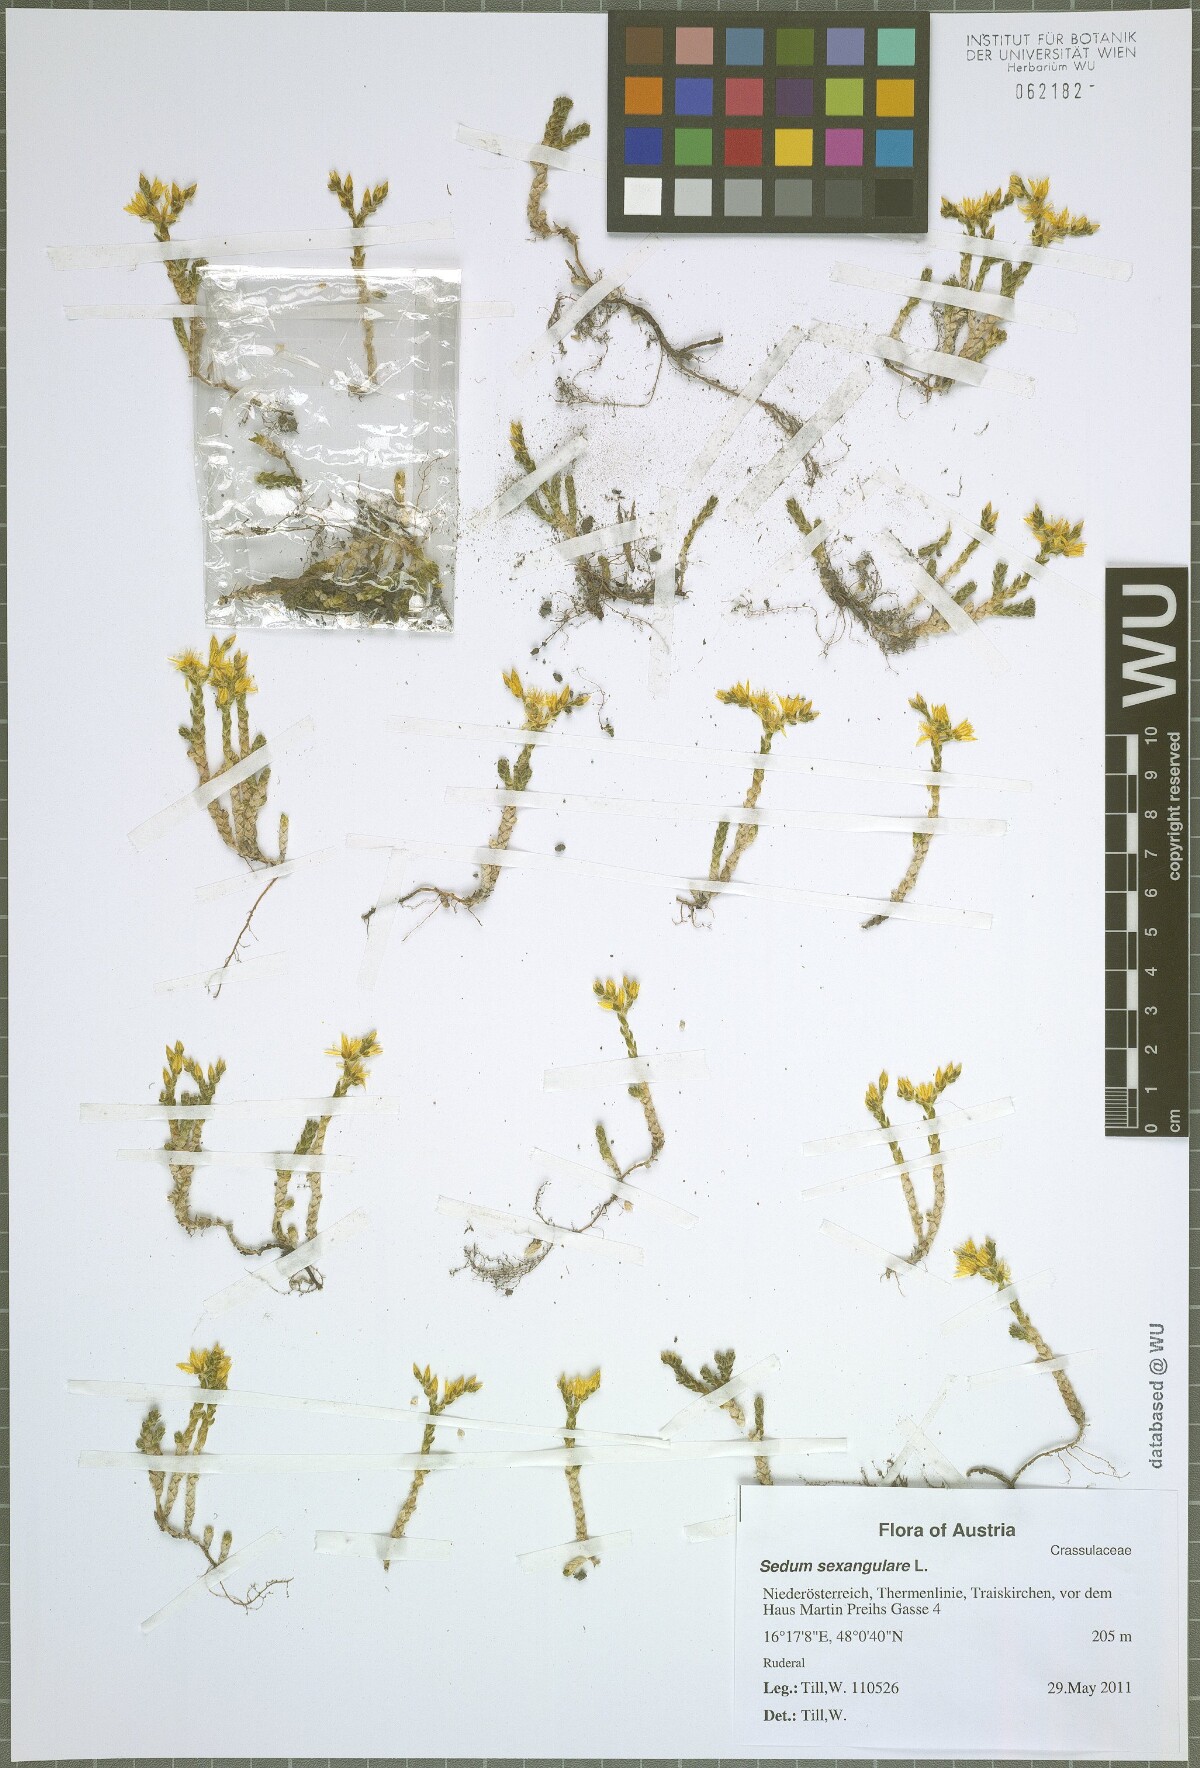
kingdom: Plantae
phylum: Tracheophyta
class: Magnoliopsida
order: Saxifragales
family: Crassulaceae
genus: Sedum
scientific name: Sedum sexangulare
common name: Tasteless stonecrop
